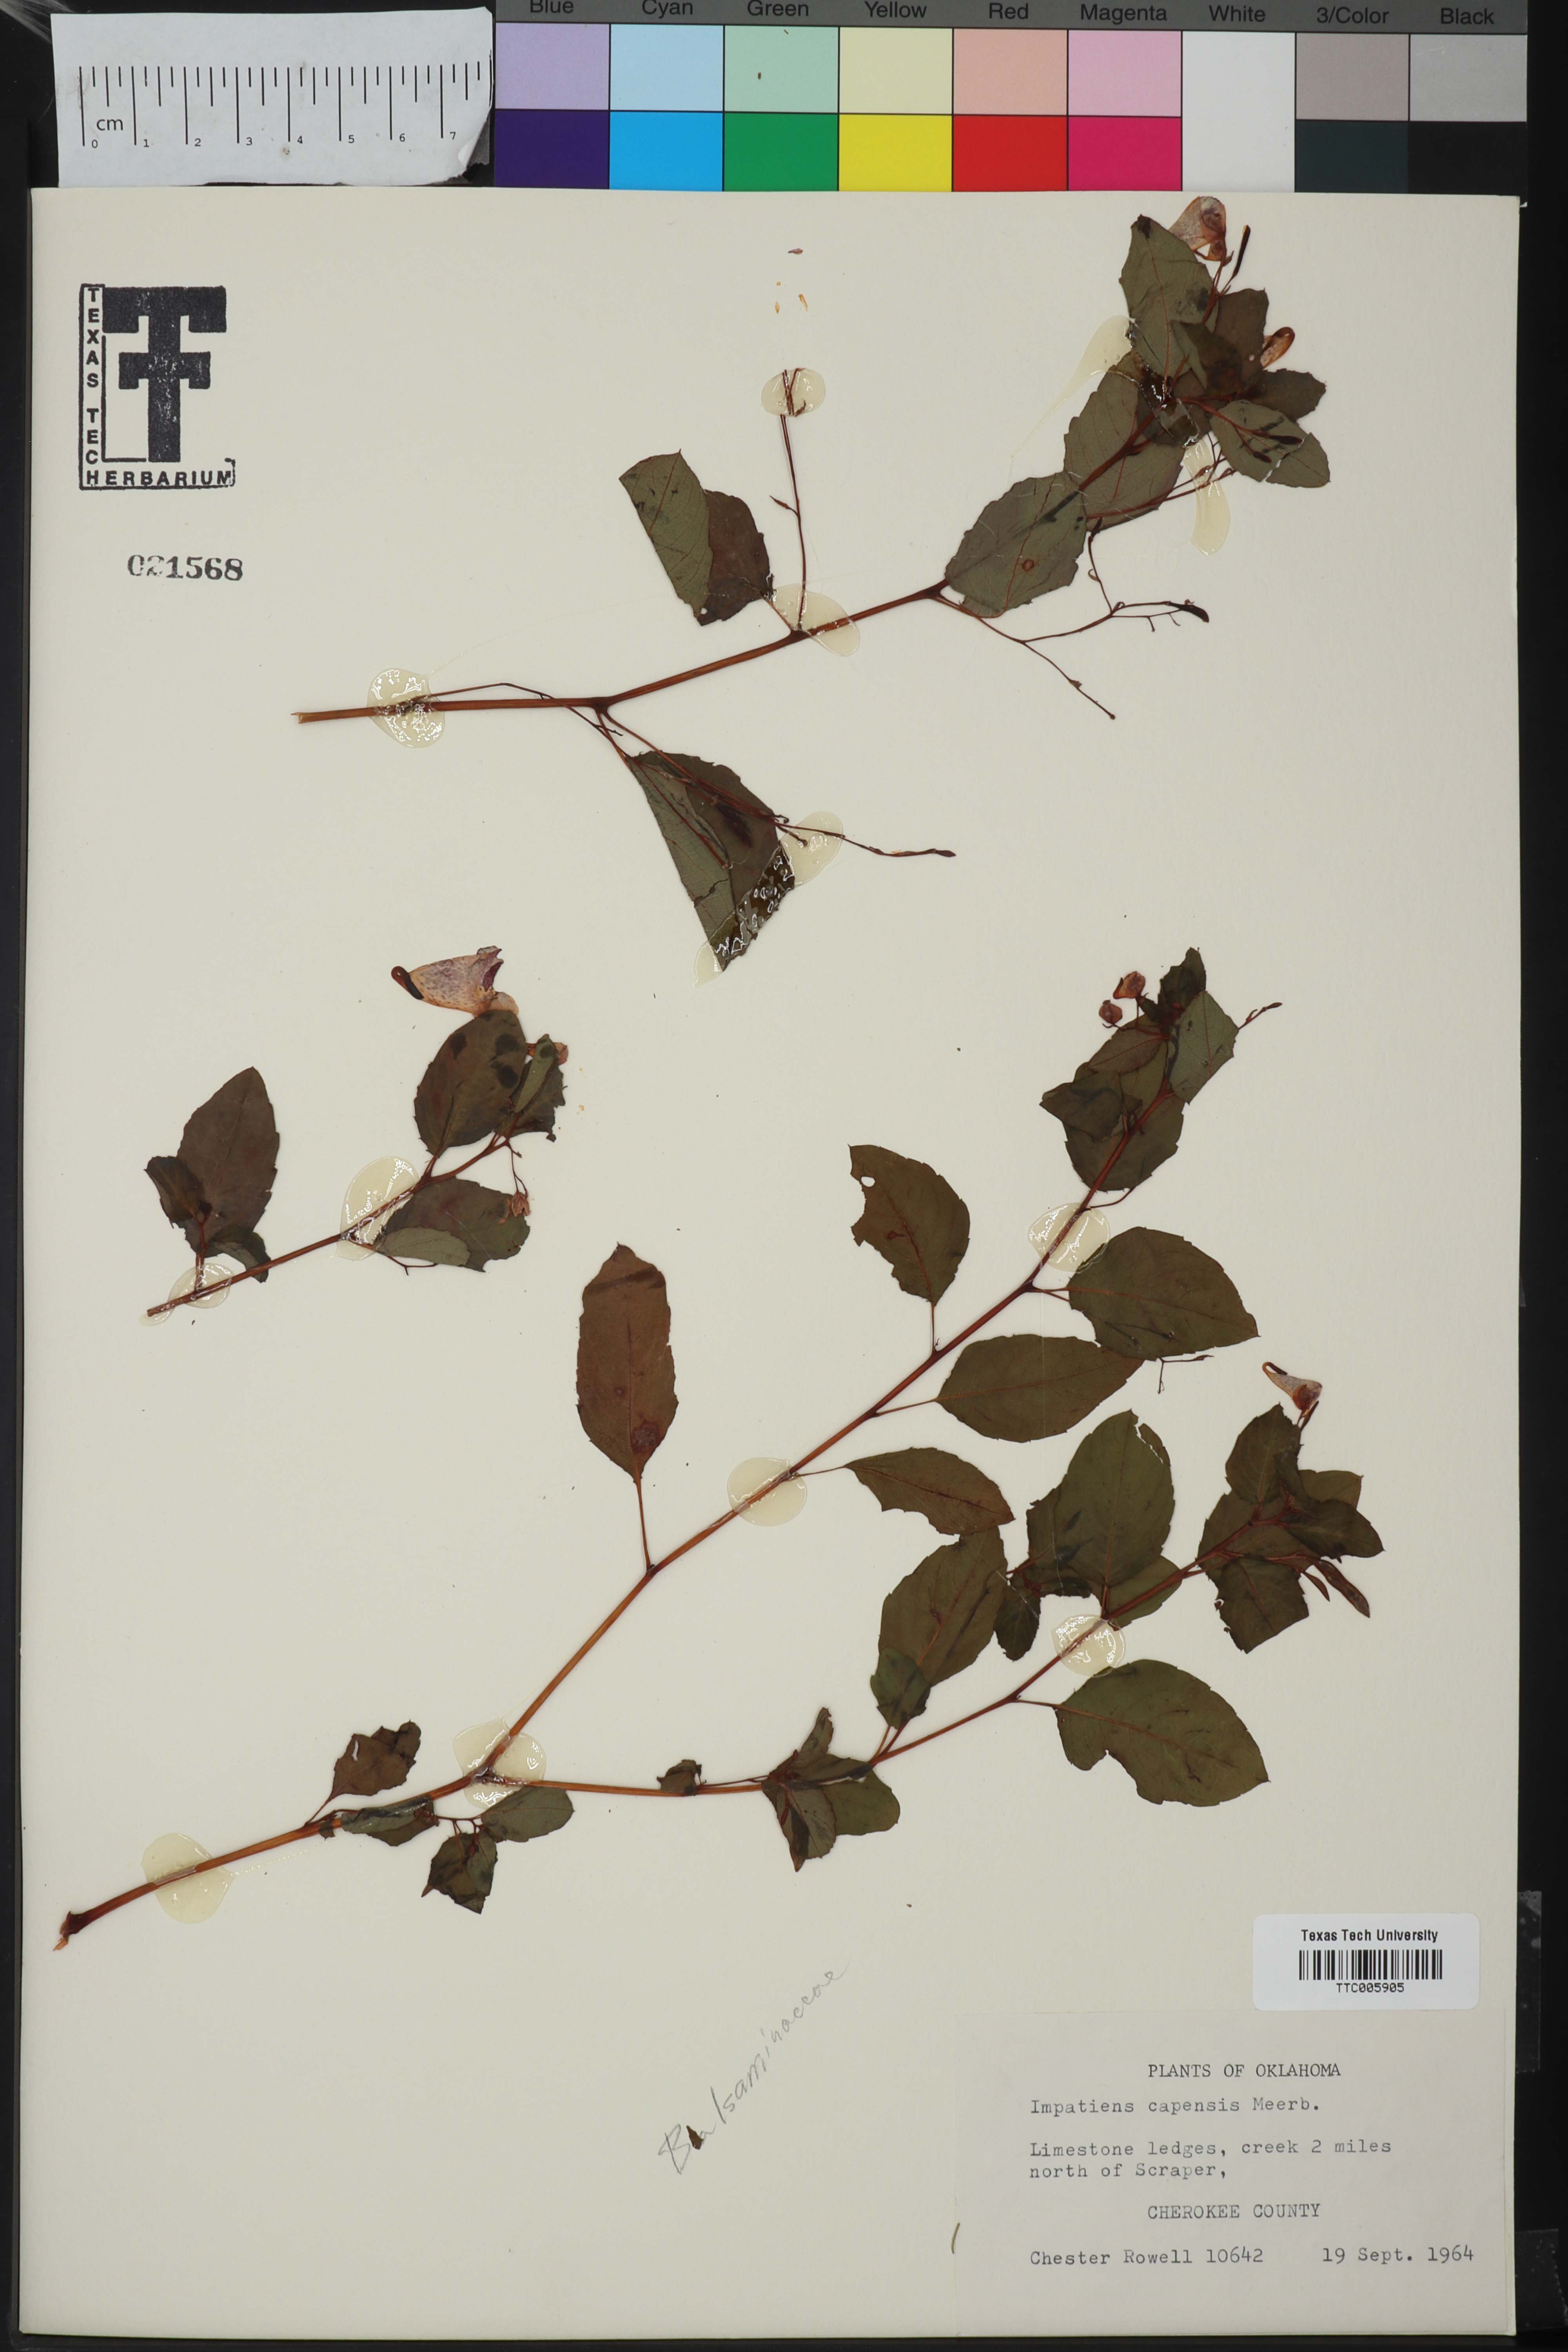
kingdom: Plantae
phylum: Tracheophyta
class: Magnoliopsida
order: Ericales
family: Balsaminaceae
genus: Impatiens
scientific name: Impatiens capensis
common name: Orange balsam
